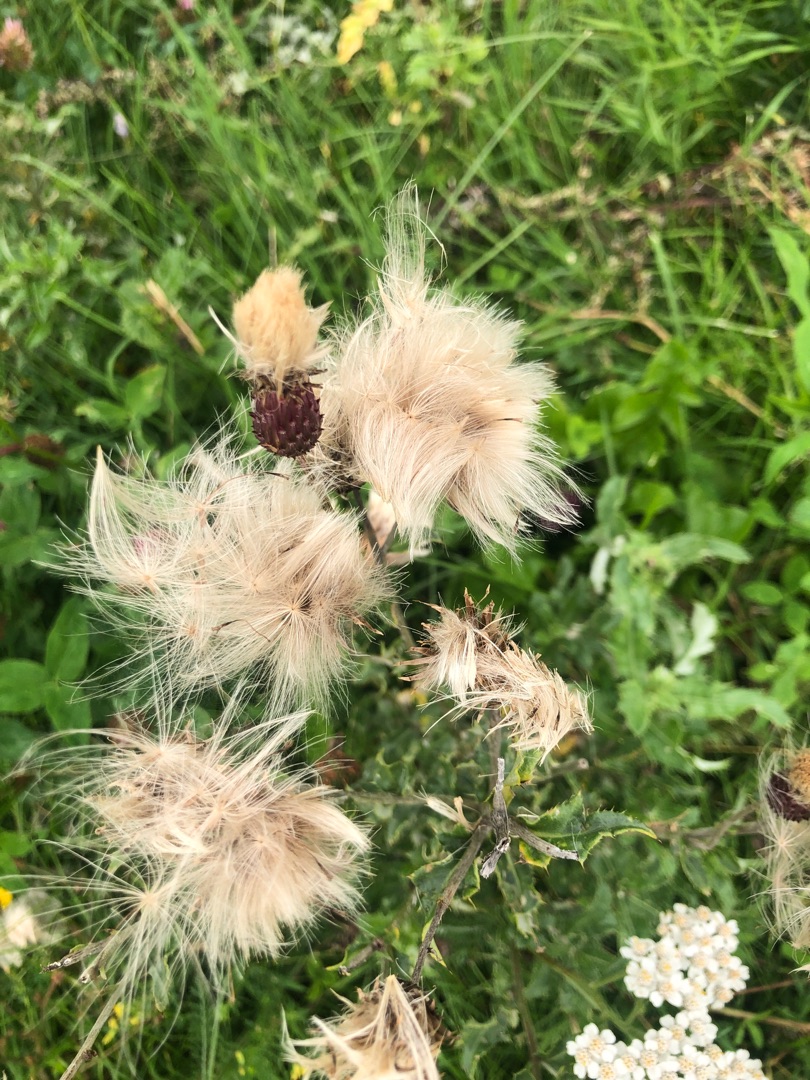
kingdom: Plantae
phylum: Tracheophyta
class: Magnoliopsida
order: Asterales
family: Asteraceae
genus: Cirsium
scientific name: Cirsium arvense
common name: Ager-tidsel
